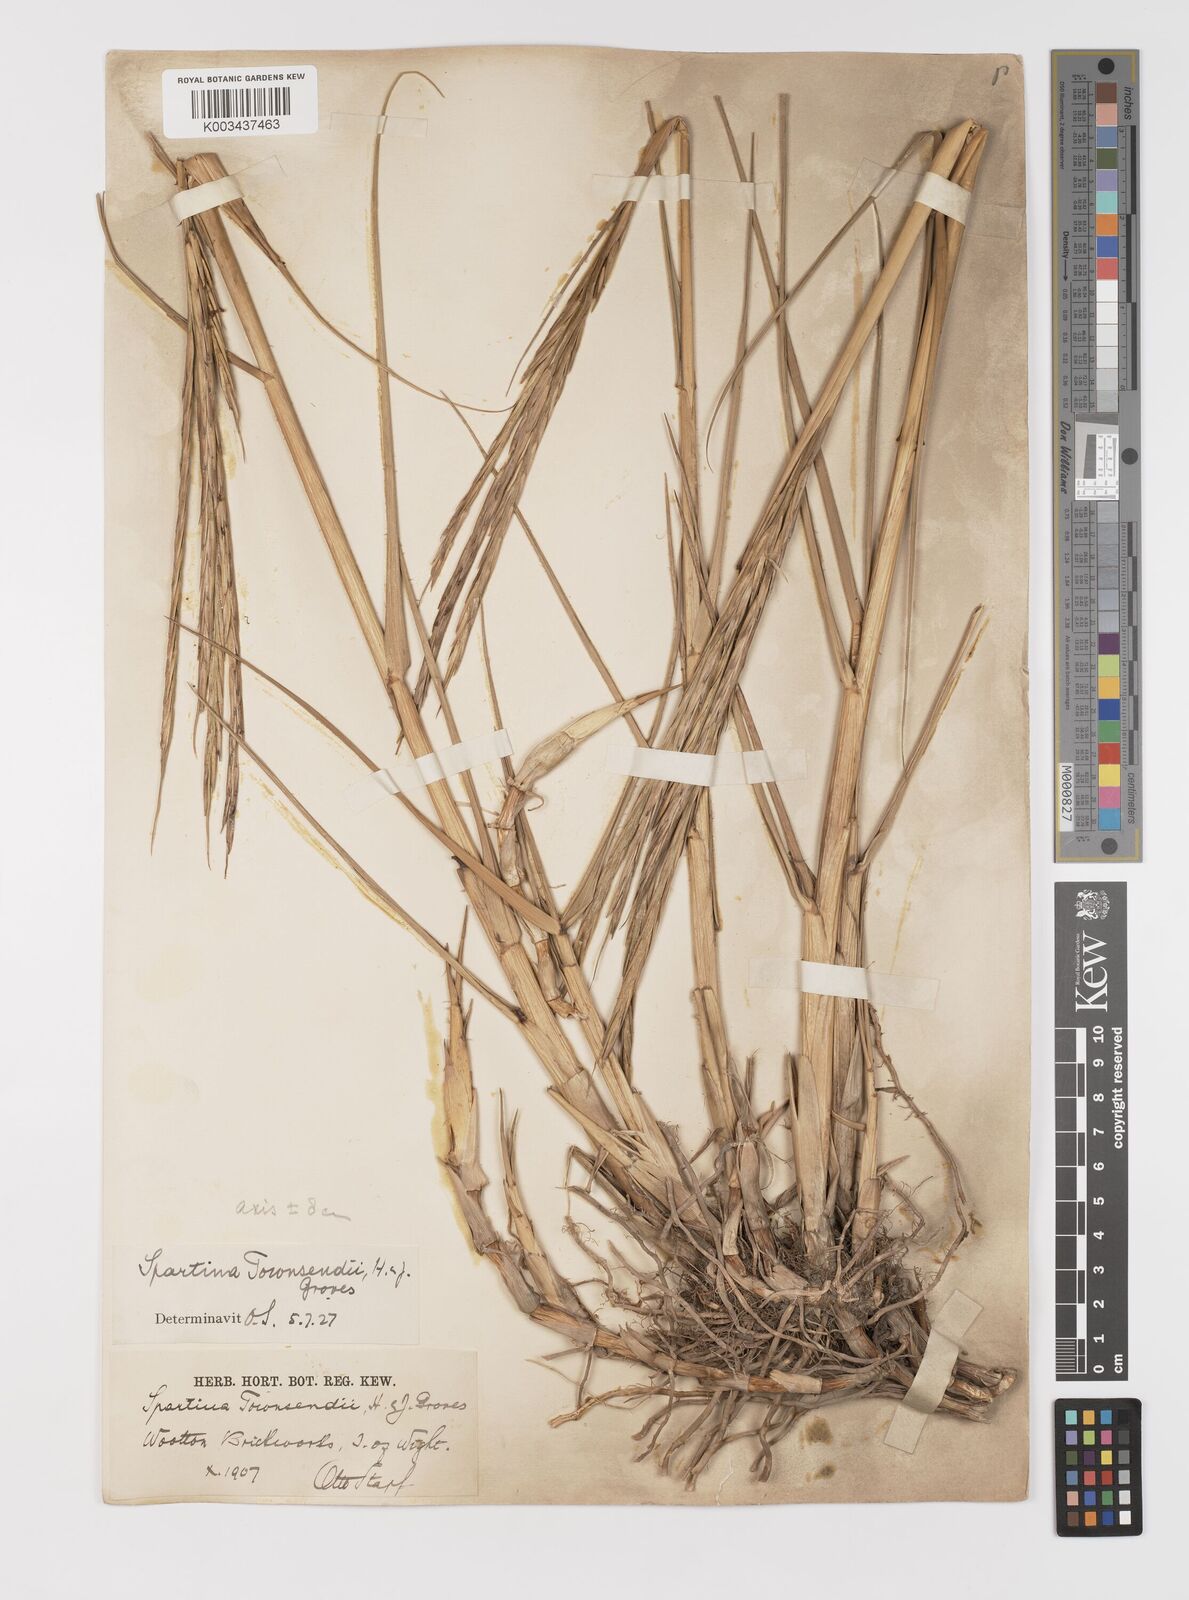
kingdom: Plantae
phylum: Tracheophyta
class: Liliopsida
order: Poales
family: Poaceae
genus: Sporobolus
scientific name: Sporobolus anglicus
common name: English cordgrass
